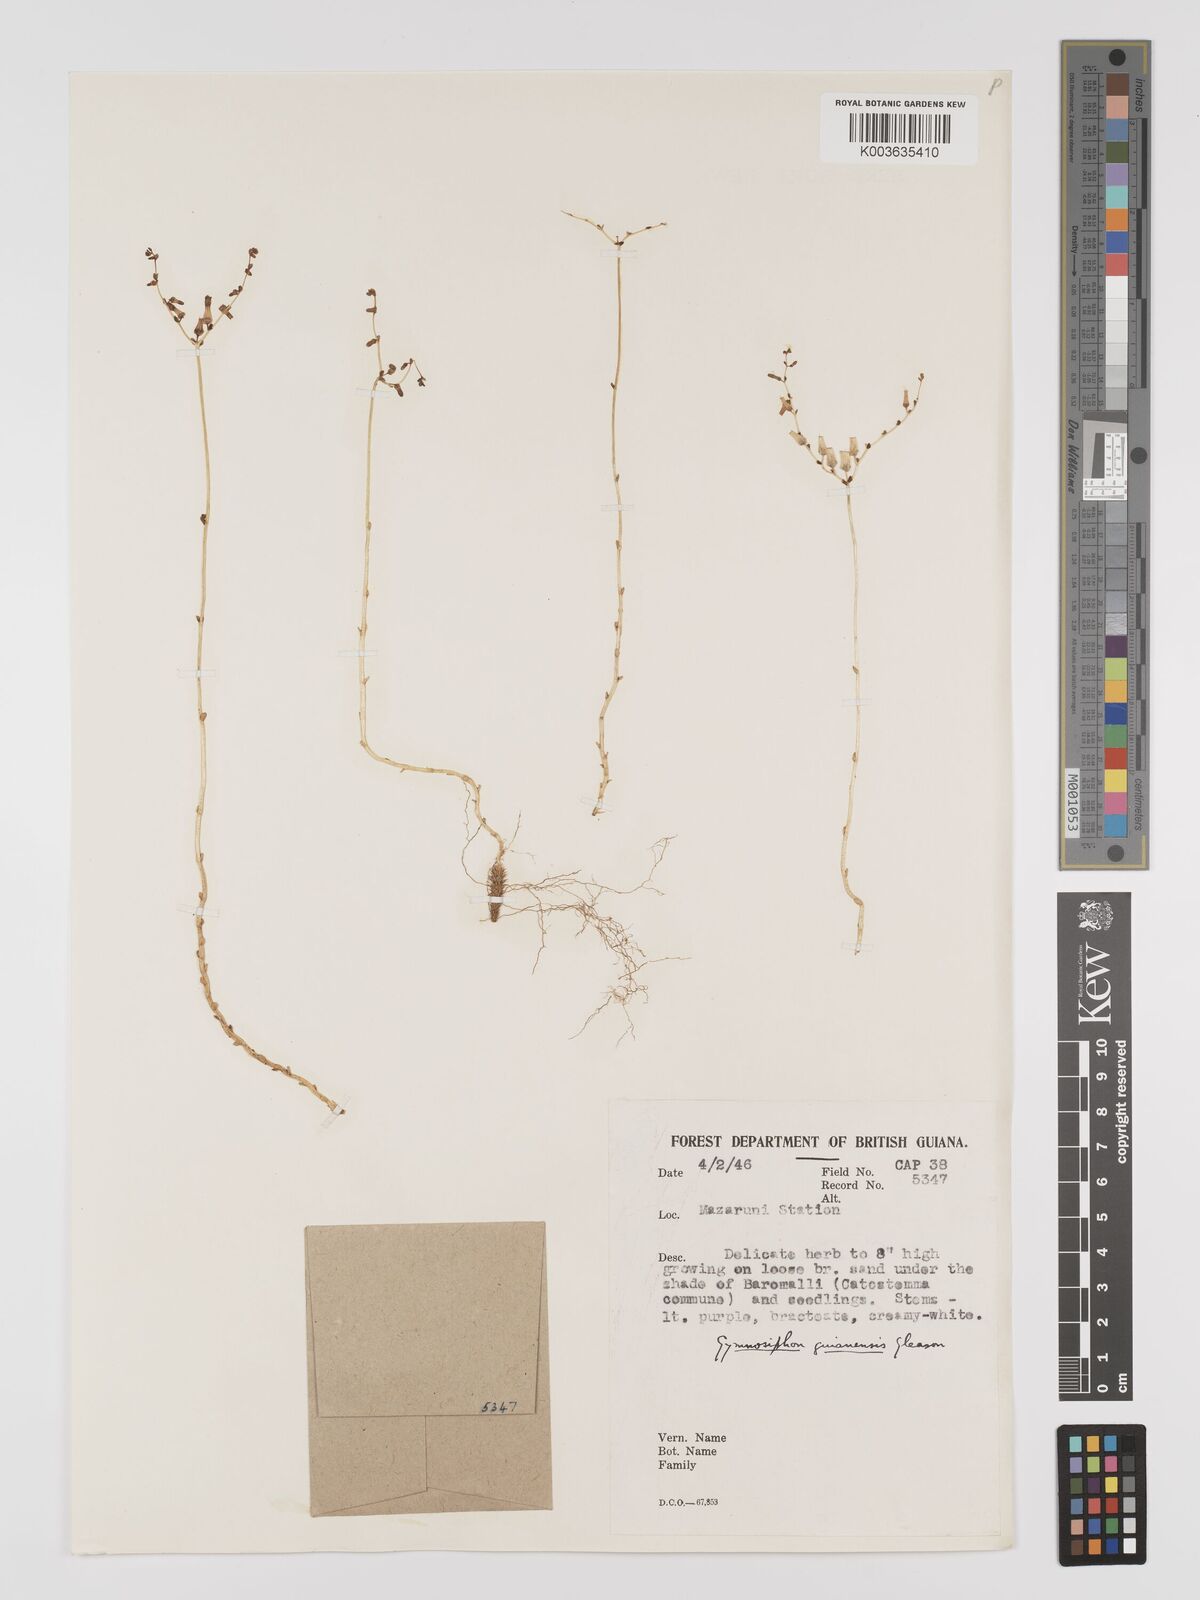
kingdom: Plantae
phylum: Tracheophyta
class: Liliopsida
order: Dioscoreales
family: Burmanniaceae
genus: Gymnosiphon
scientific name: Gymnosiphon guianensis
